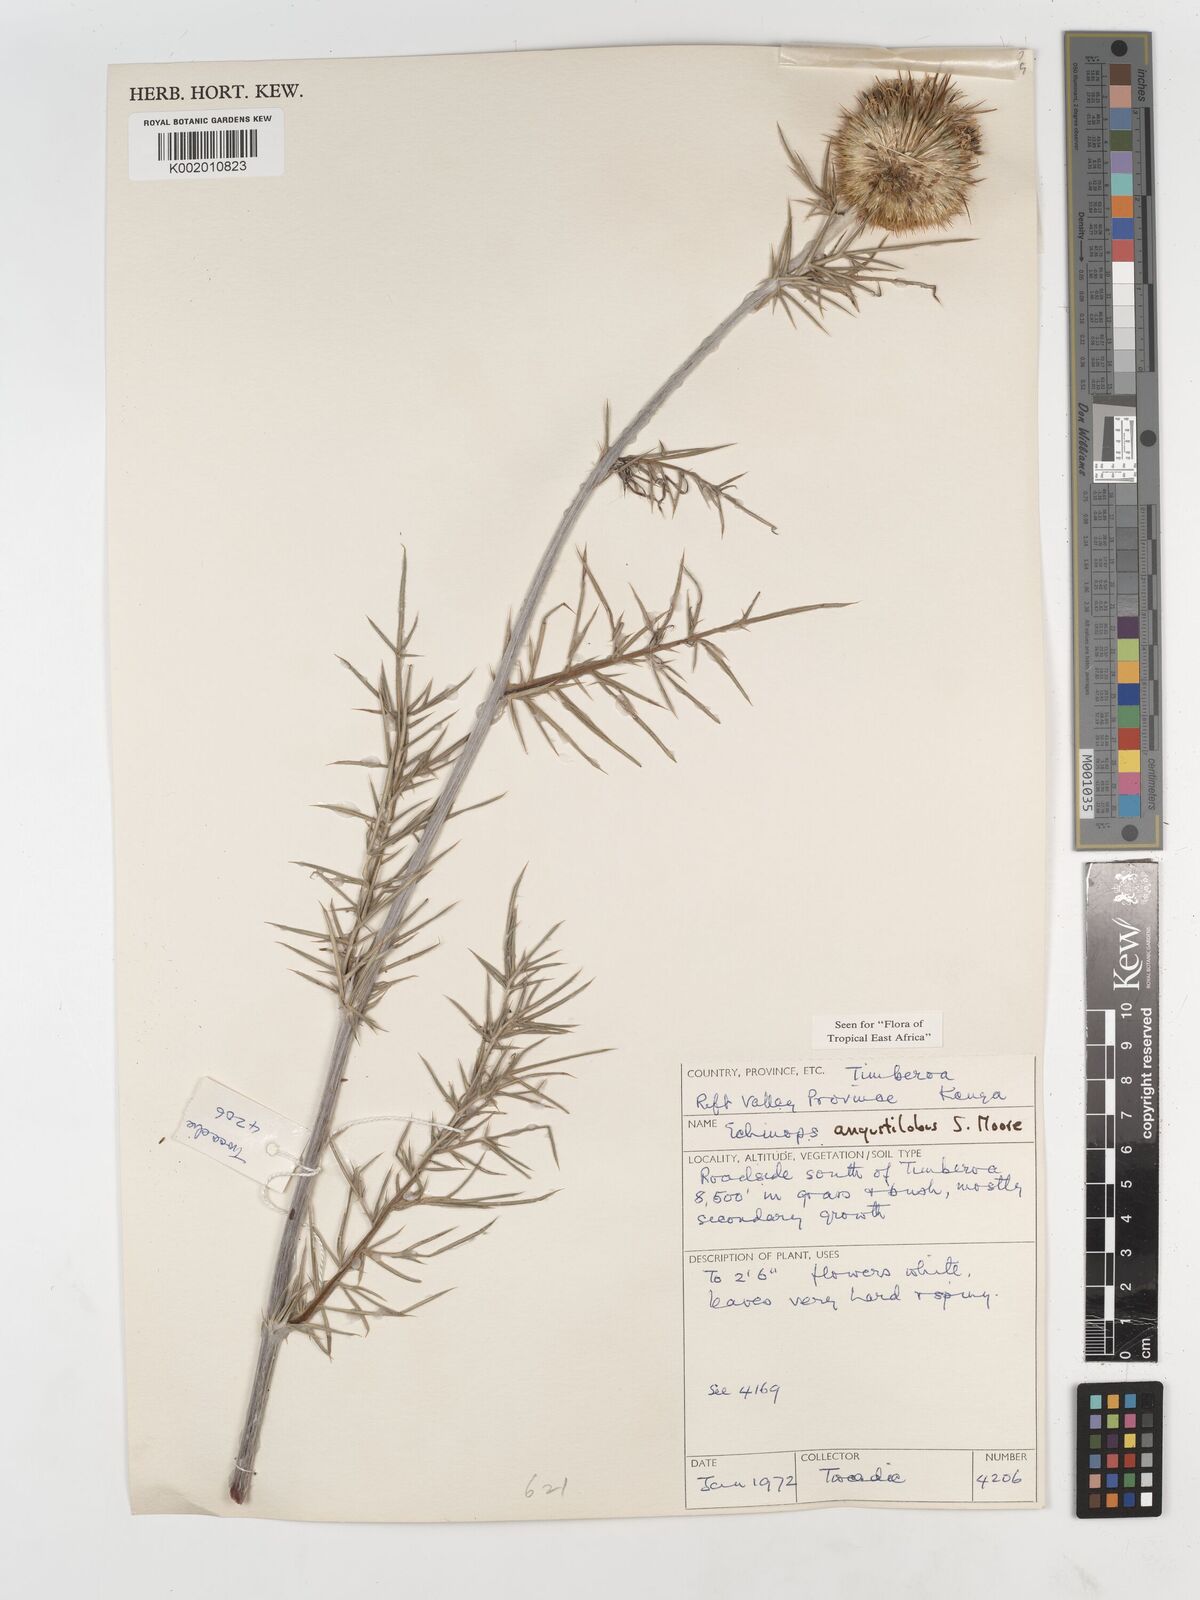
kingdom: Plantae
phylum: Tracheophyta
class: Magnoliopsida
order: Asterales
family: Asteraceae
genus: Echinops
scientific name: Echinops angustilobus
